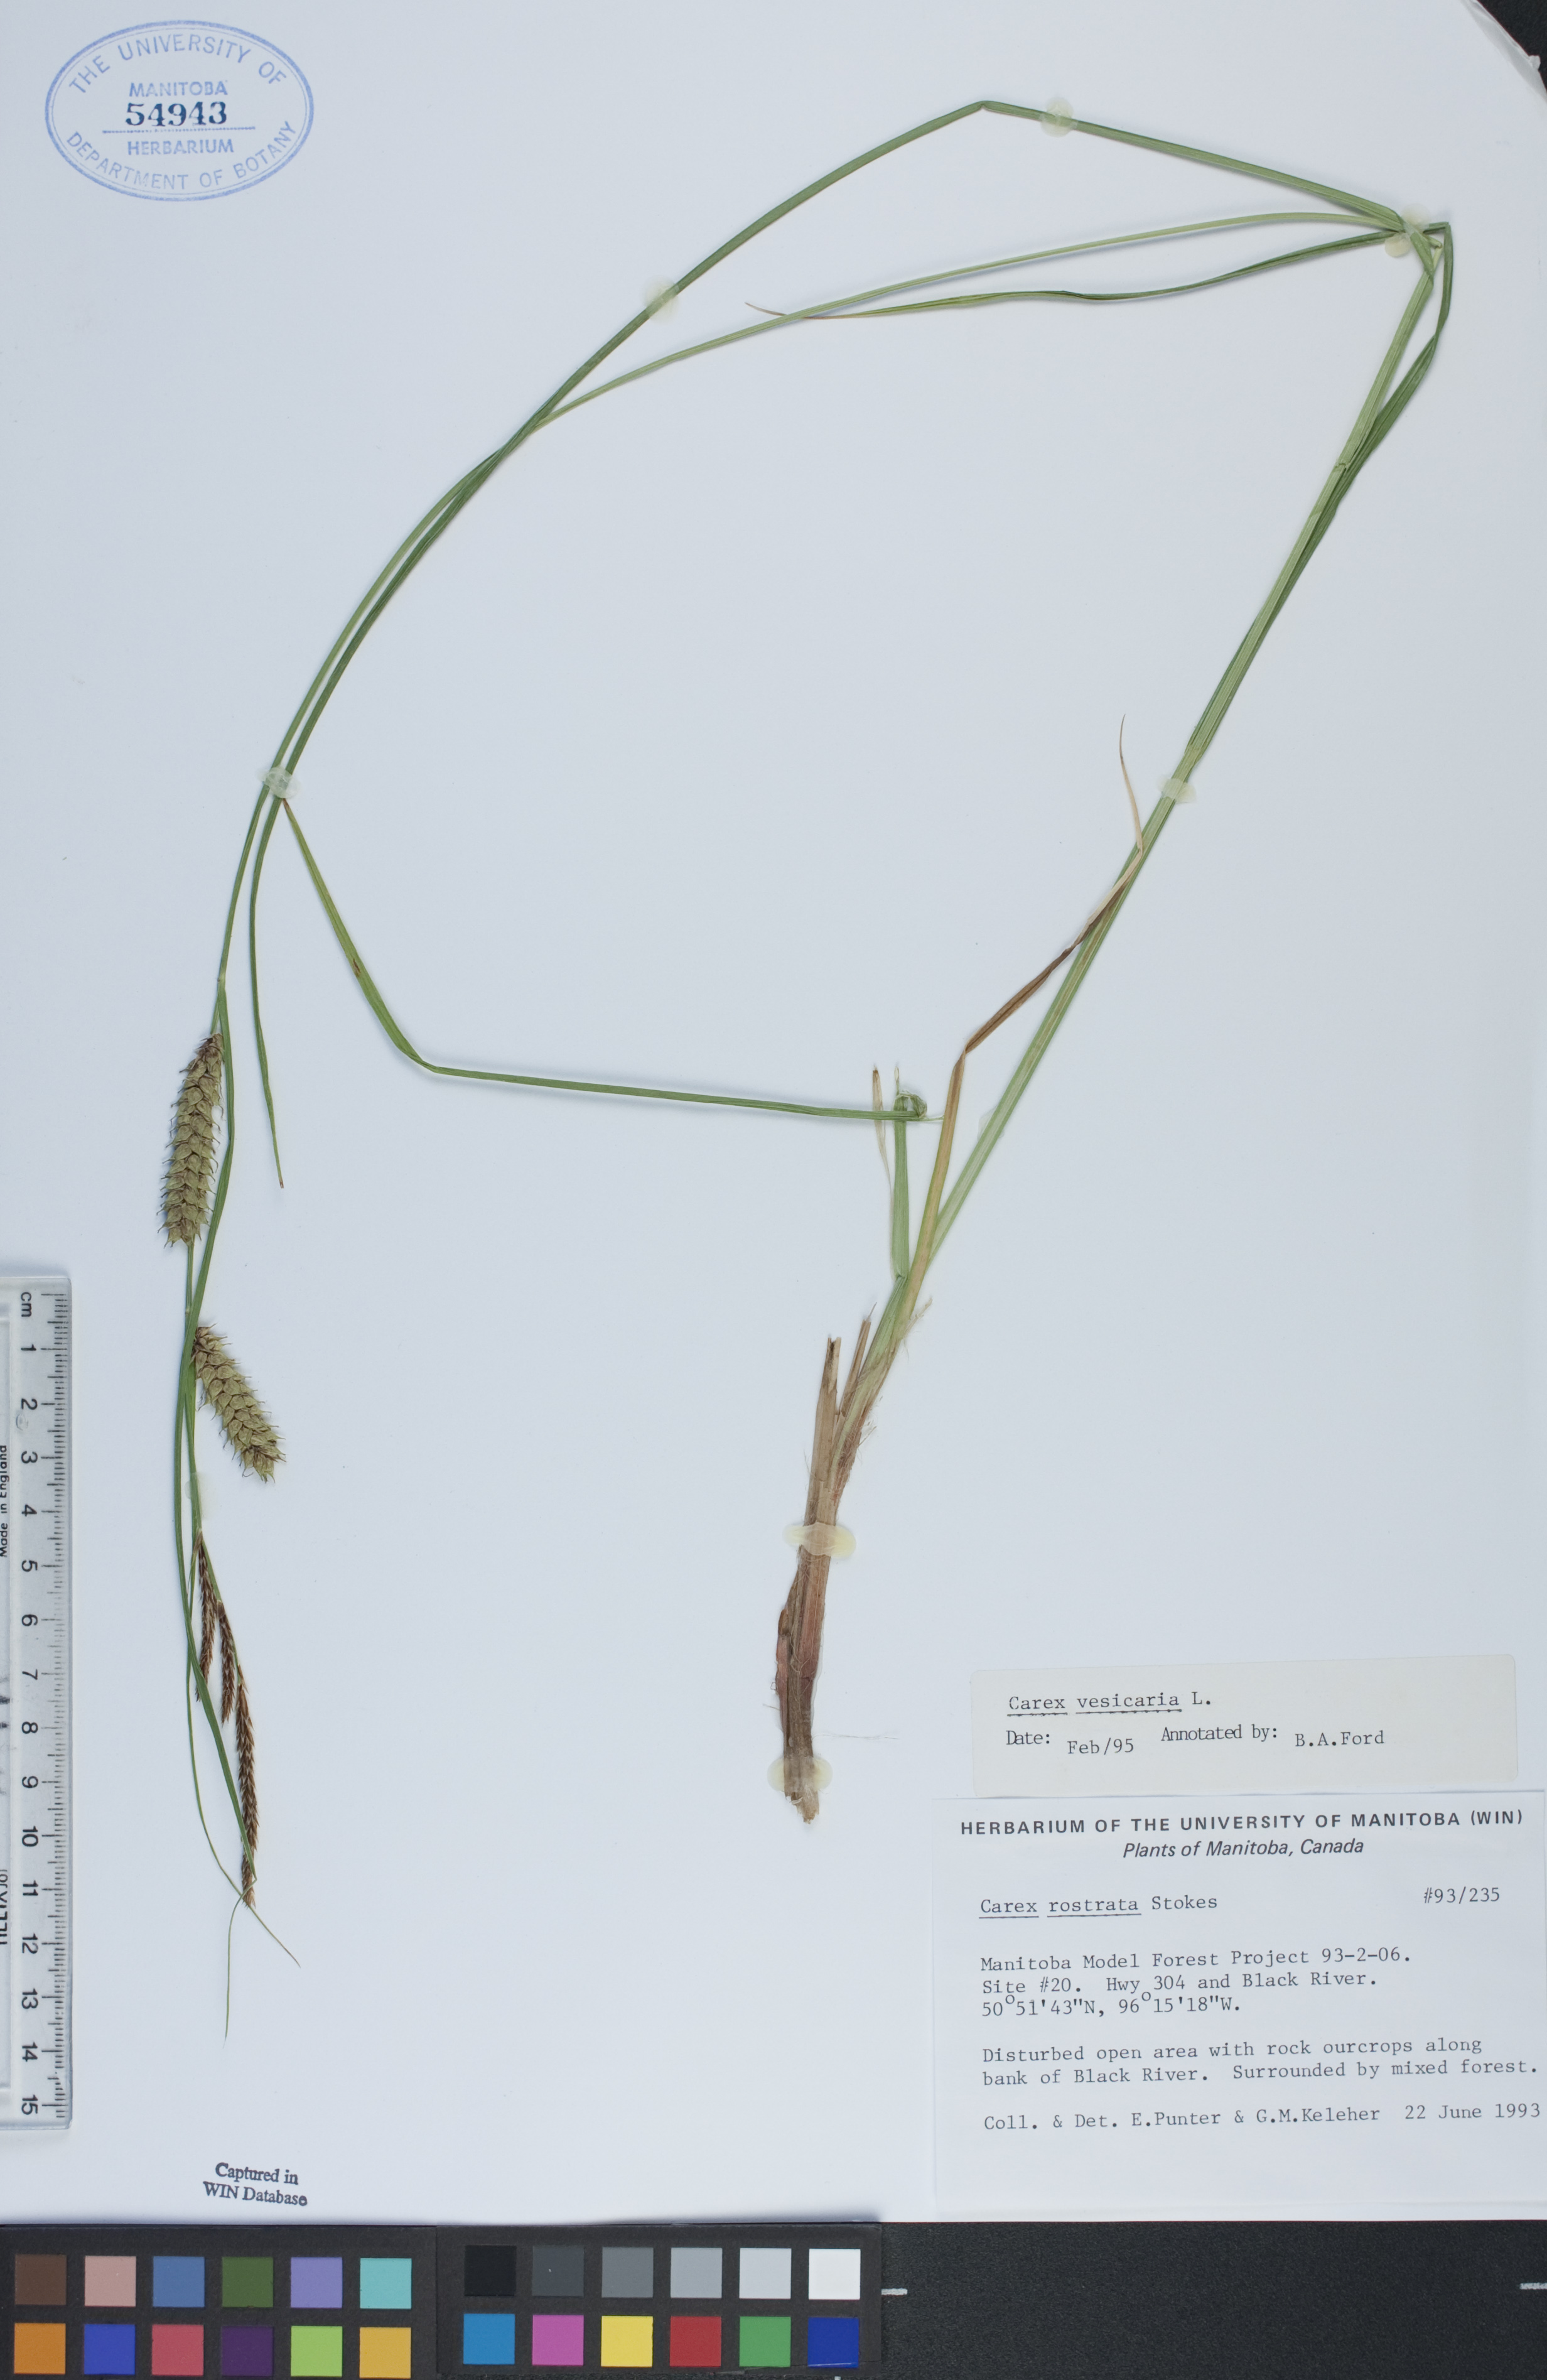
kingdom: Plantae
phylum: Tracheophyta
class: Liliopsida
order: Poales
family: Cyperaceae
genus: Carex
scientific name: Carex vesicaria
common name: Bladder-sedge
